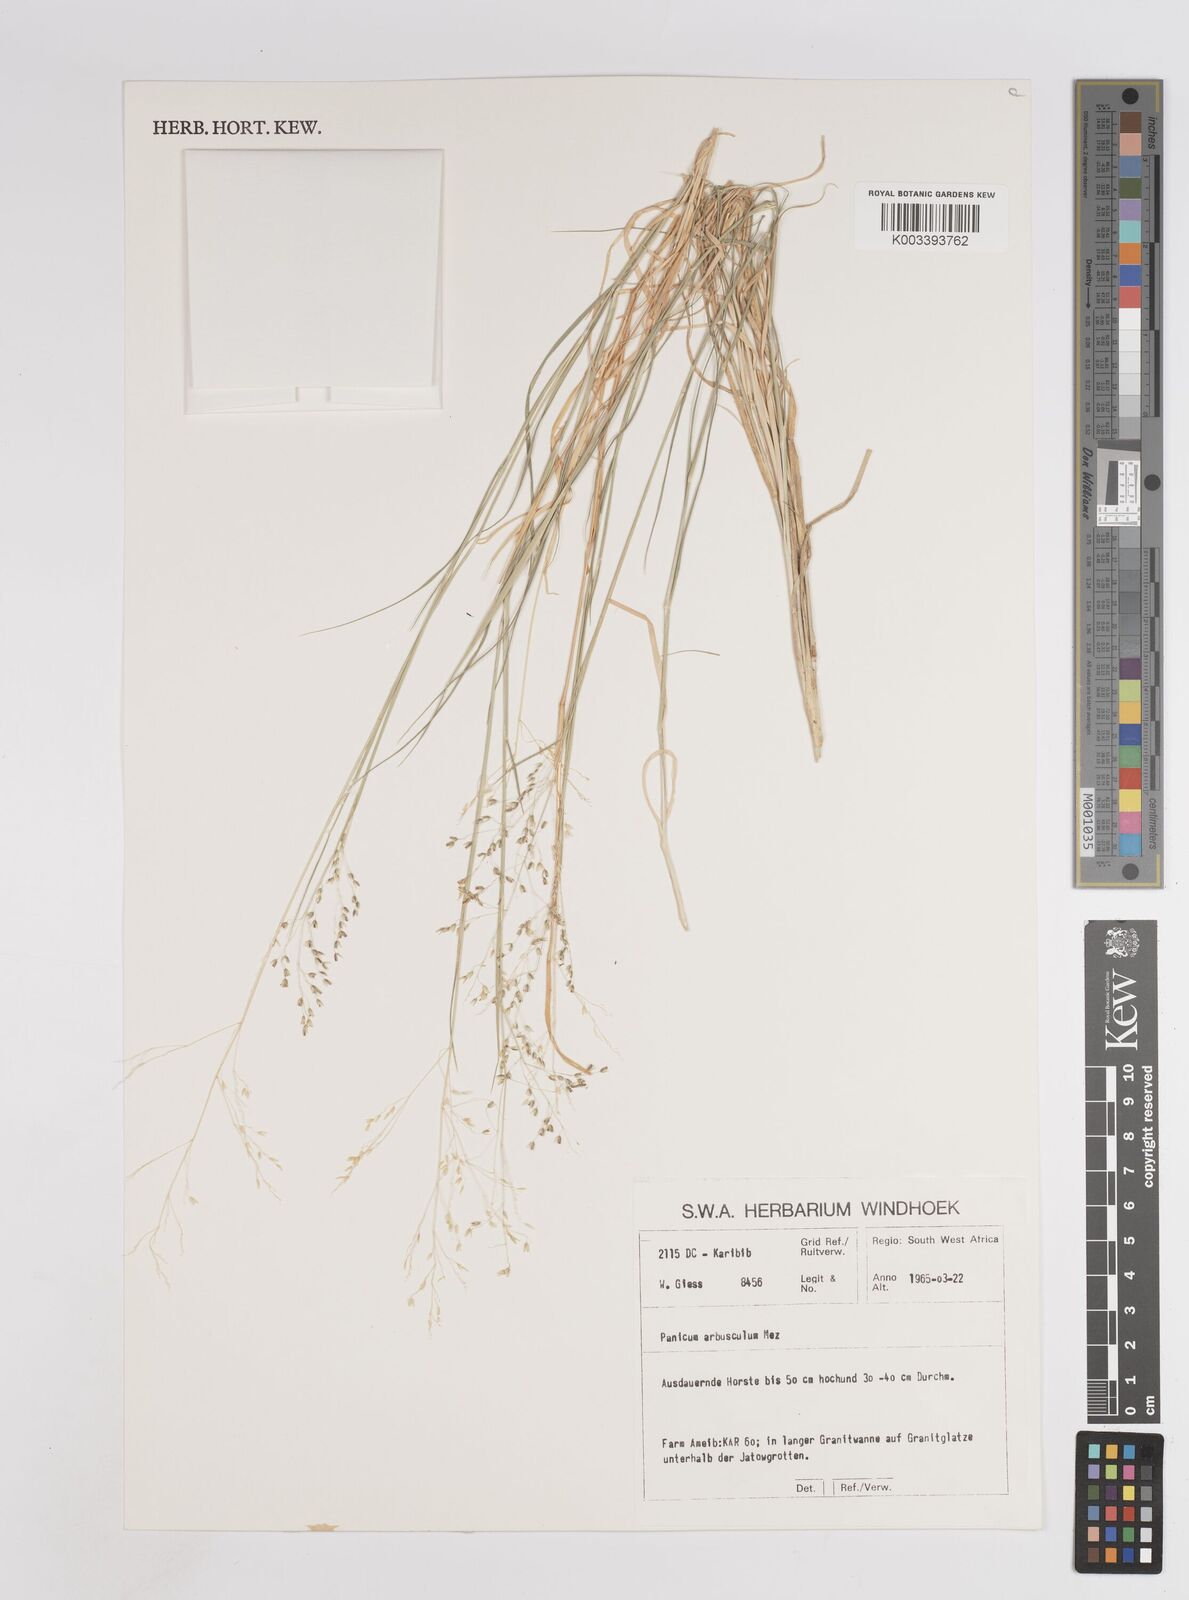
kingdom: Plantae
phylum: Tracheophyta
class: Liliopsida
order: Poales
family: Poaceae
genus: Panicum
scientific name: Panicum arbusculum
